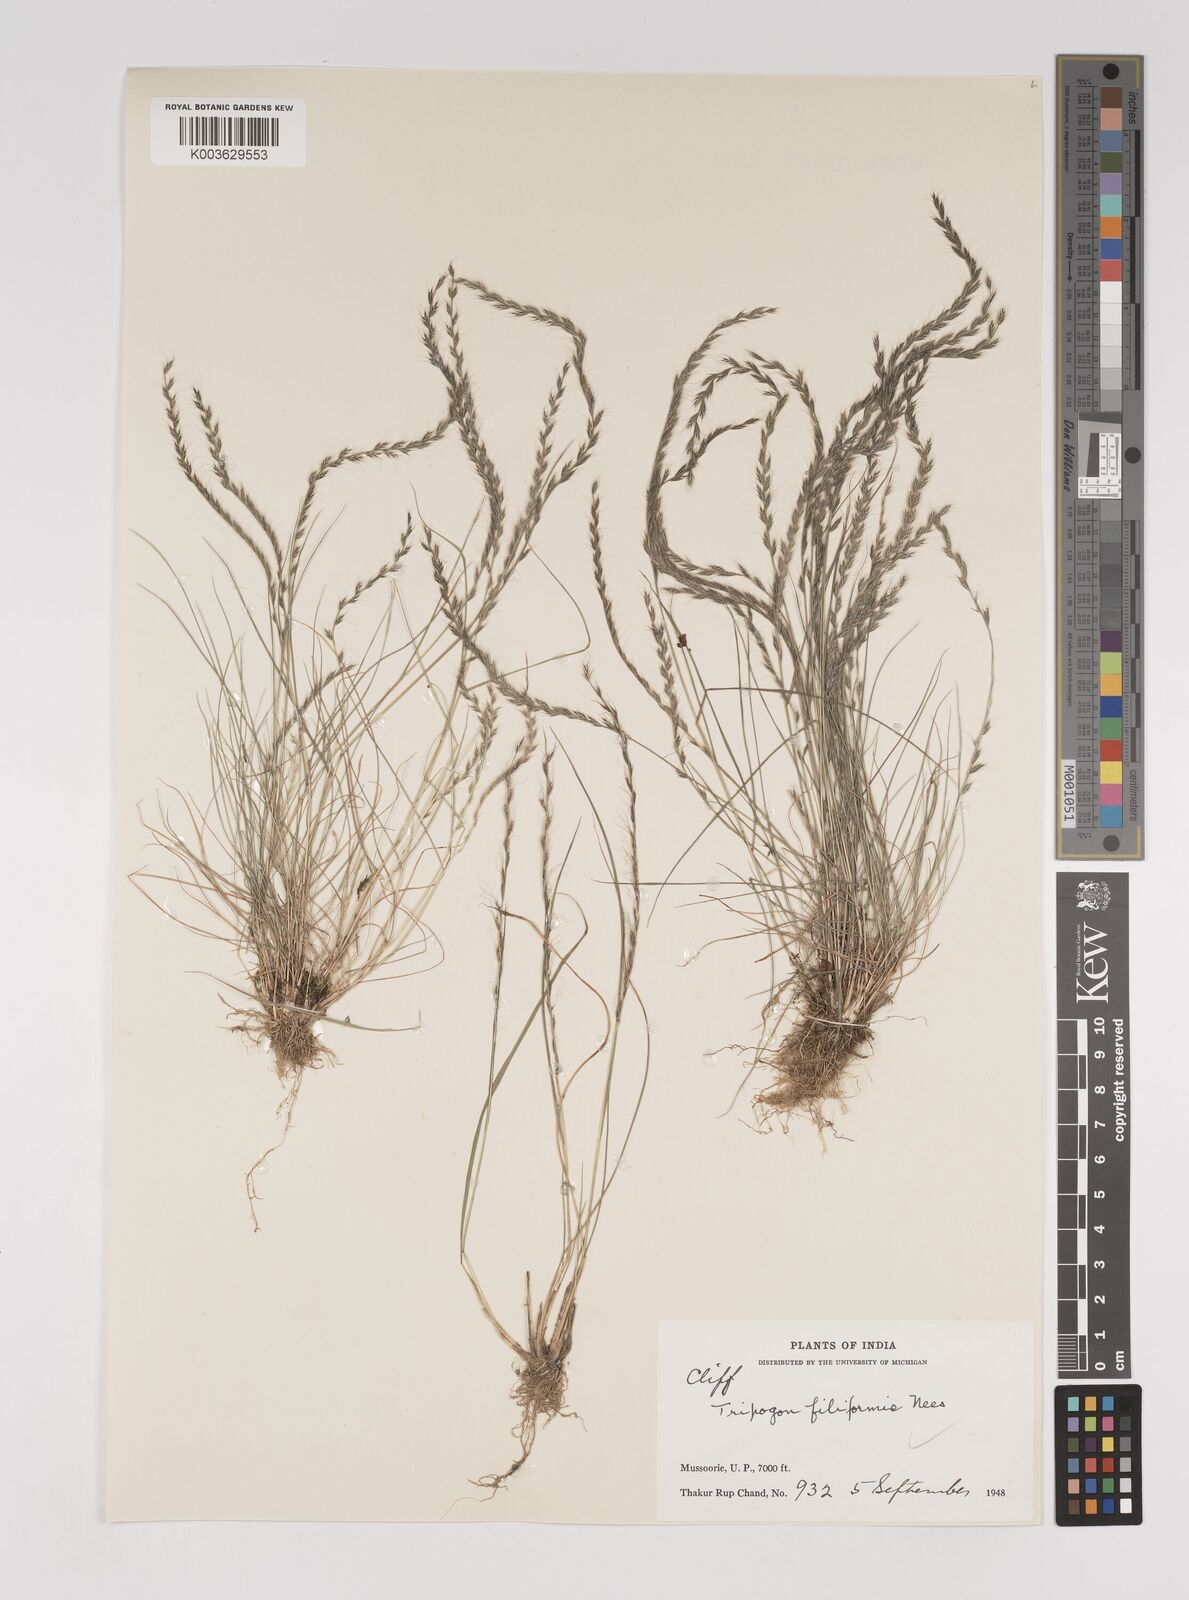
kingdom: Plantae
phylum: Tracheophyta
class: Liliopsida
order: Poales
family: Poaceae
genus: Tripogon
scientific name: Tripogon filiformis
